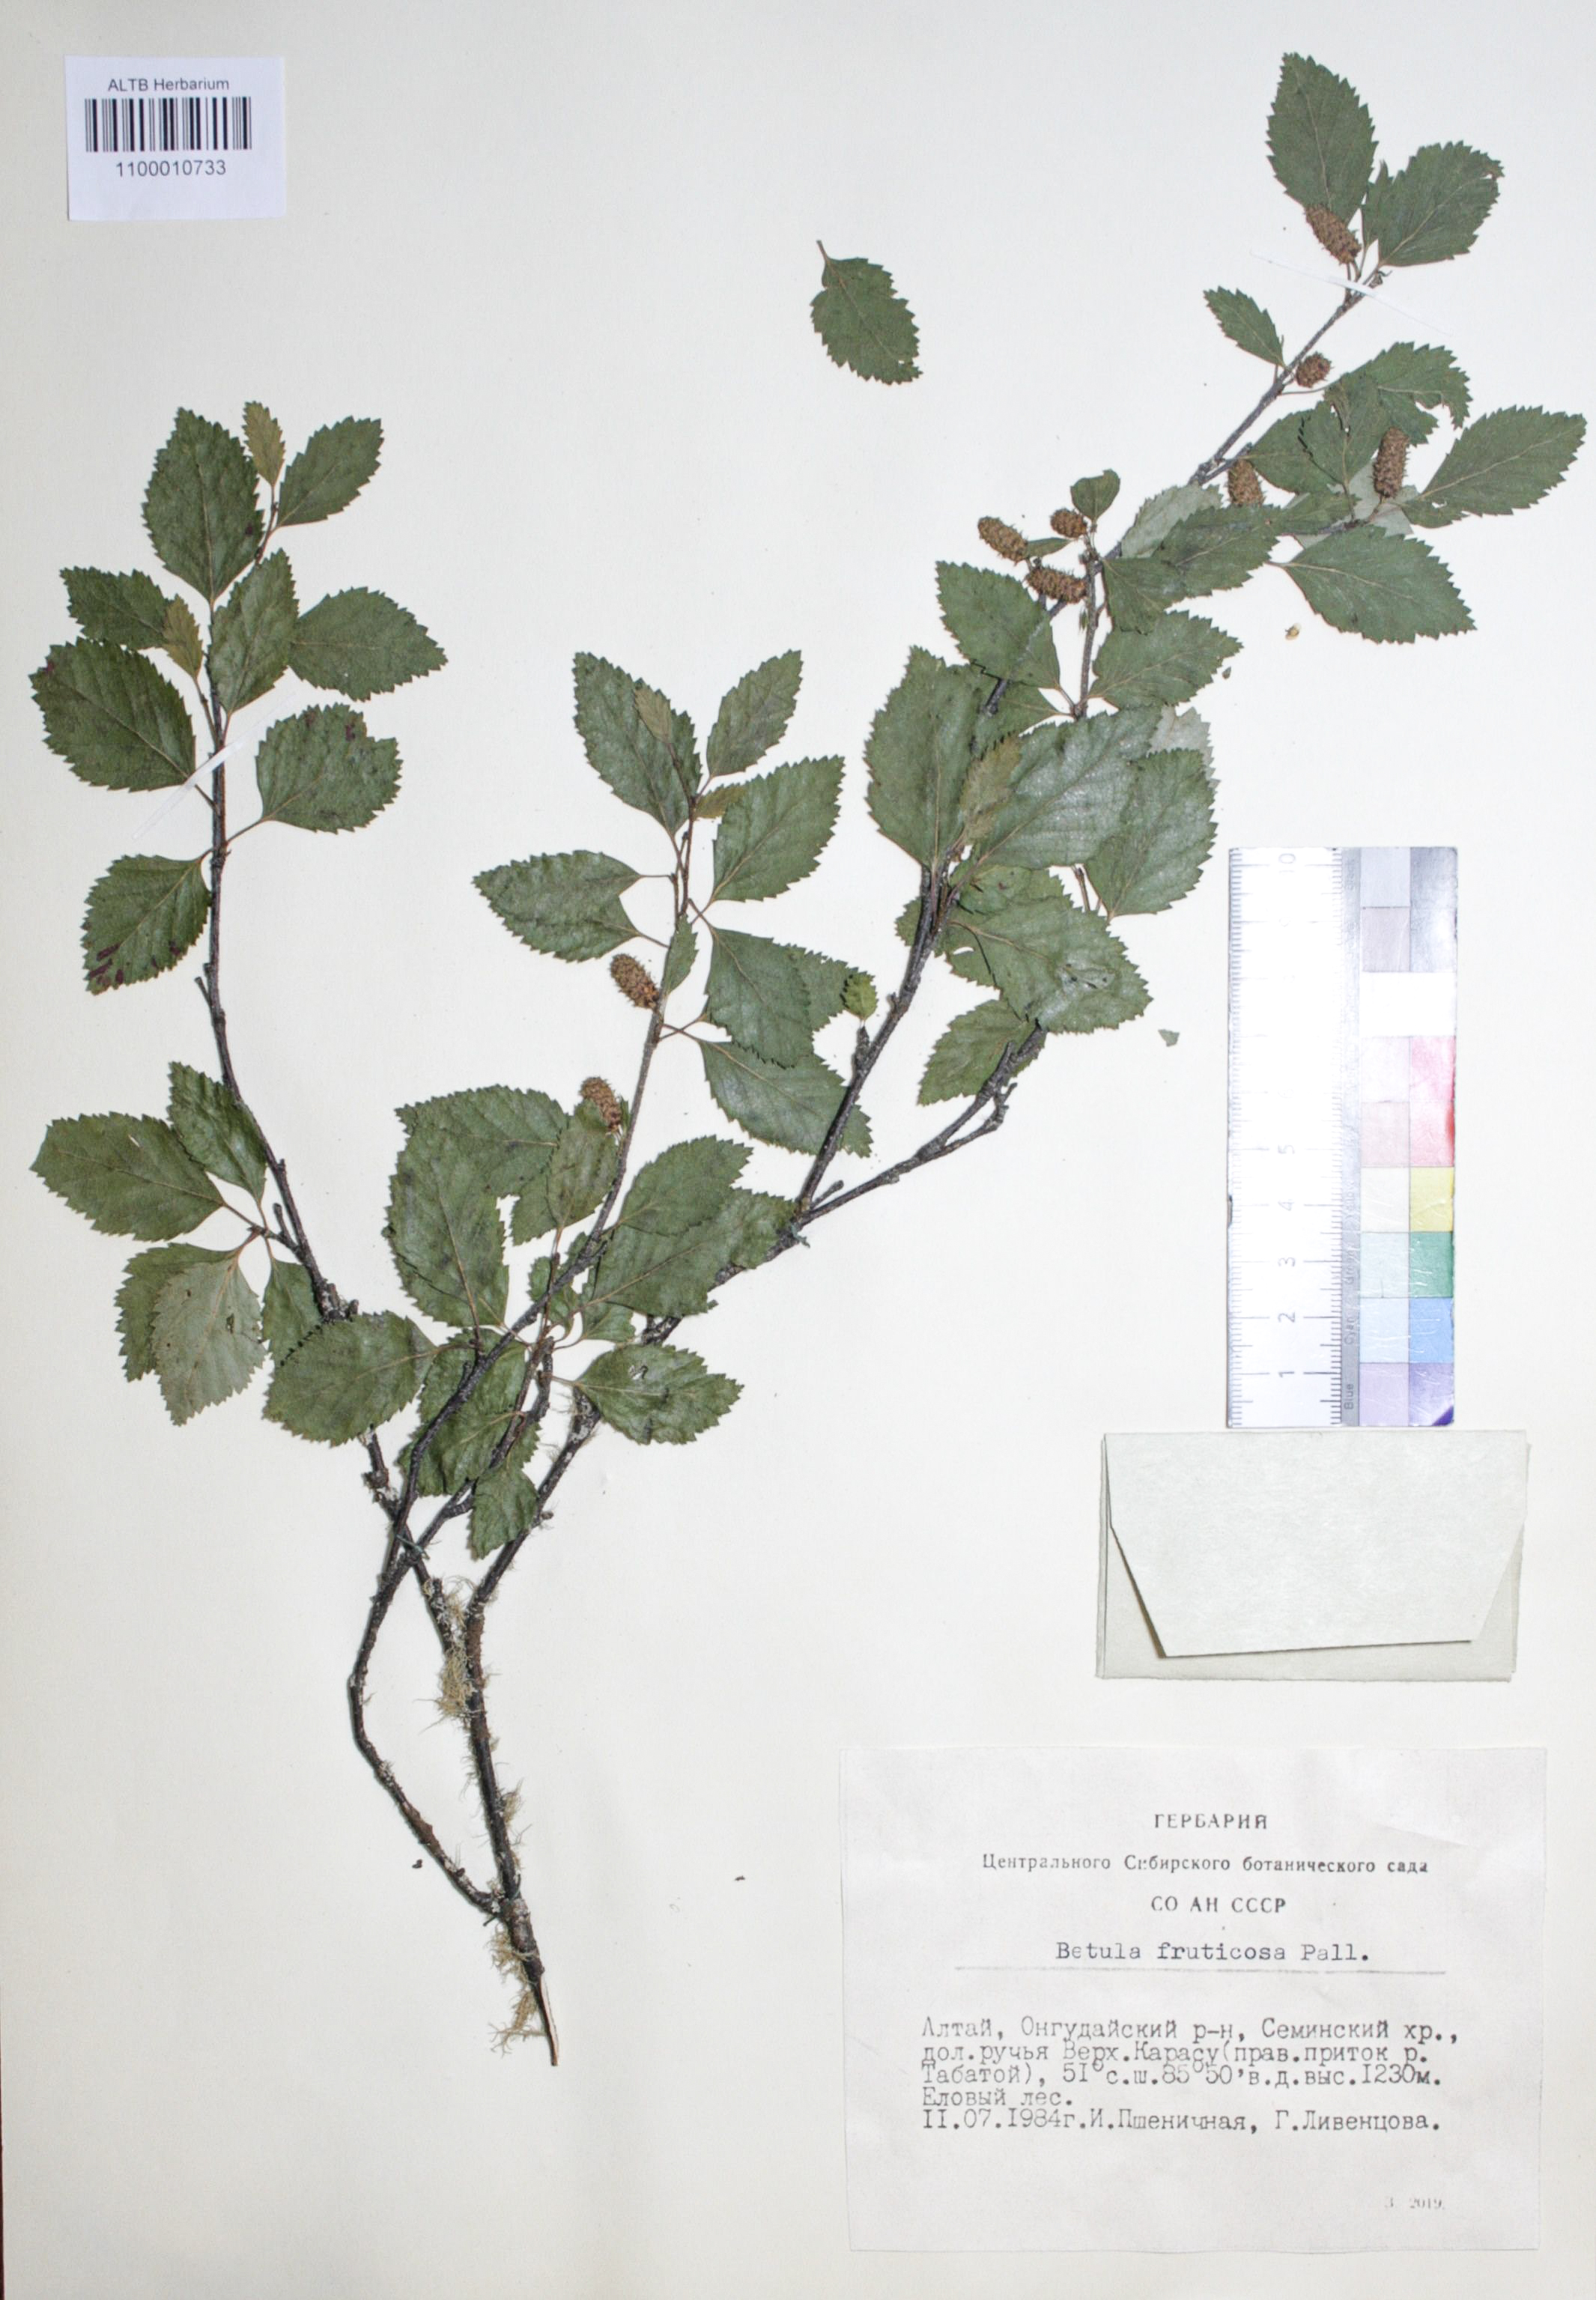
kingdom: Plantae
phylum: Tracheophyta
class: Magnoliopsida
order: Fagales
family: Betulaceae
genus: Betula
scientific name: Betula fruticosa
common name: Japanese bog birch
